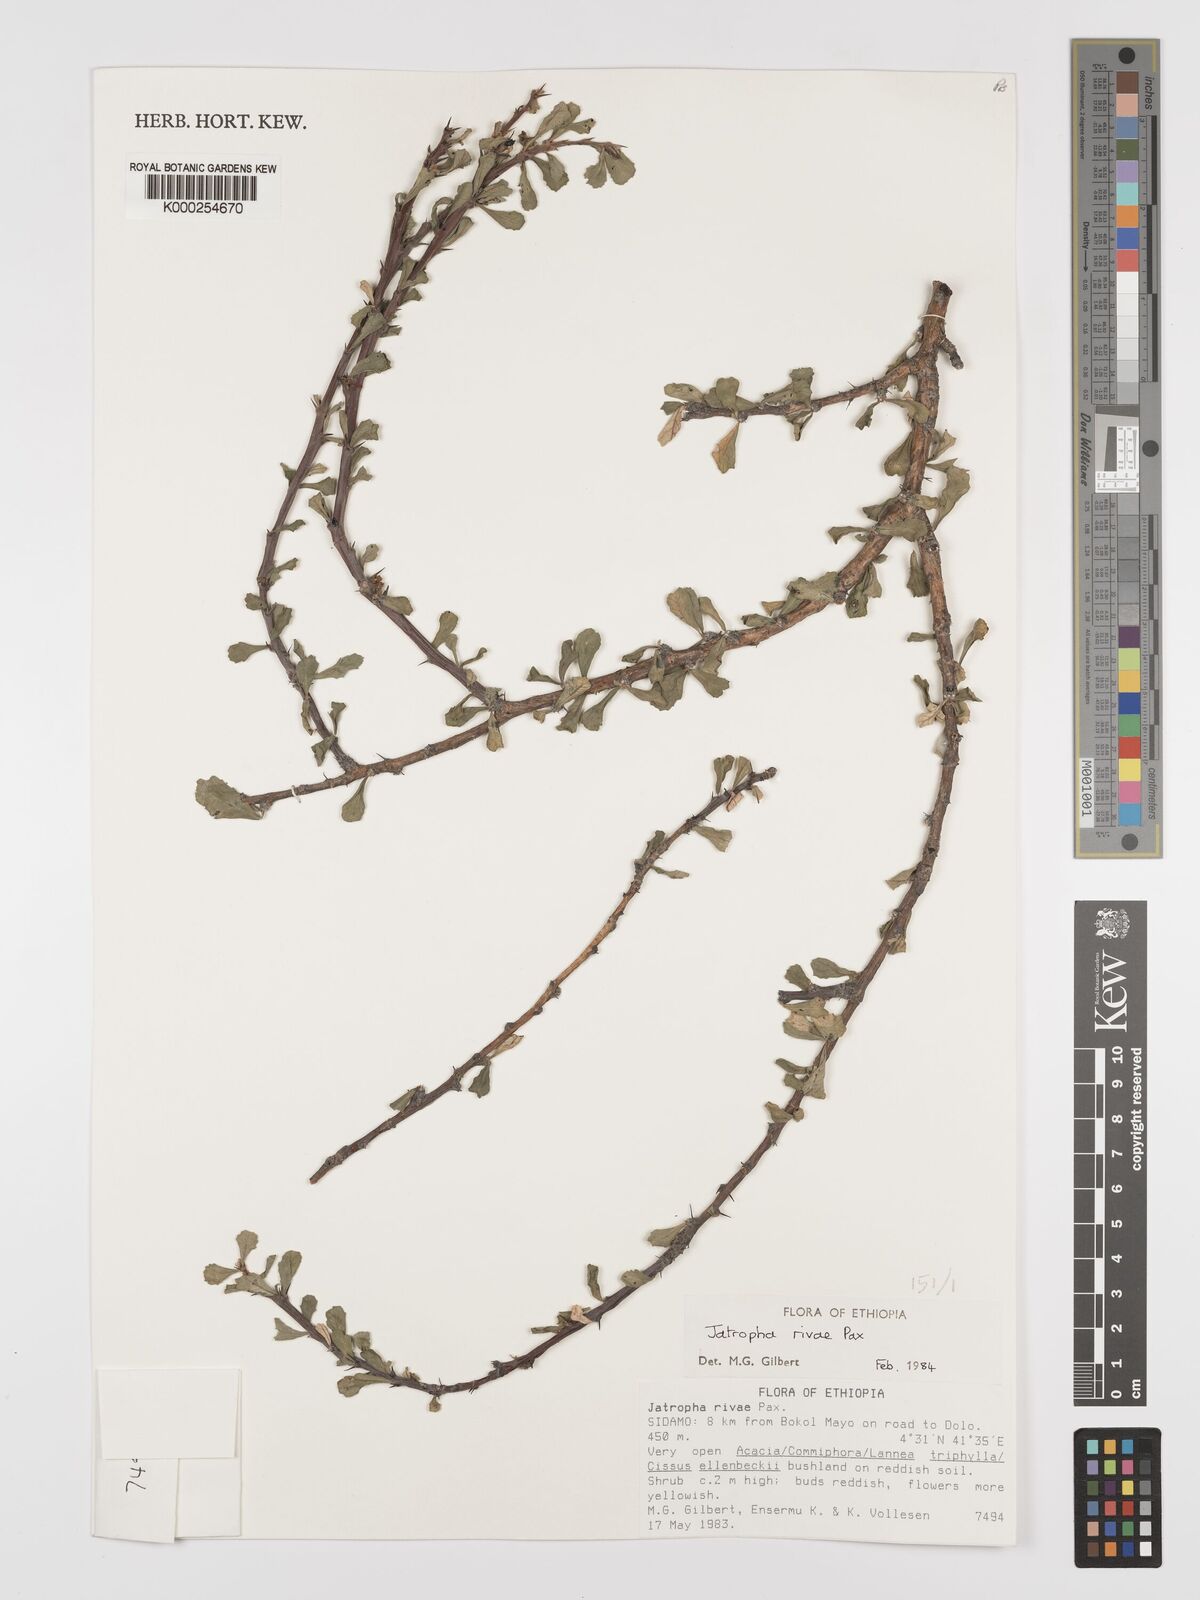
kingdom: Plantae
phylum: Tracheophyta
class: Magnoliopsida
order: Malpighiales
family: Euphorbiaceae
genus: Jatropha
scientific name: Jatropha rivae
